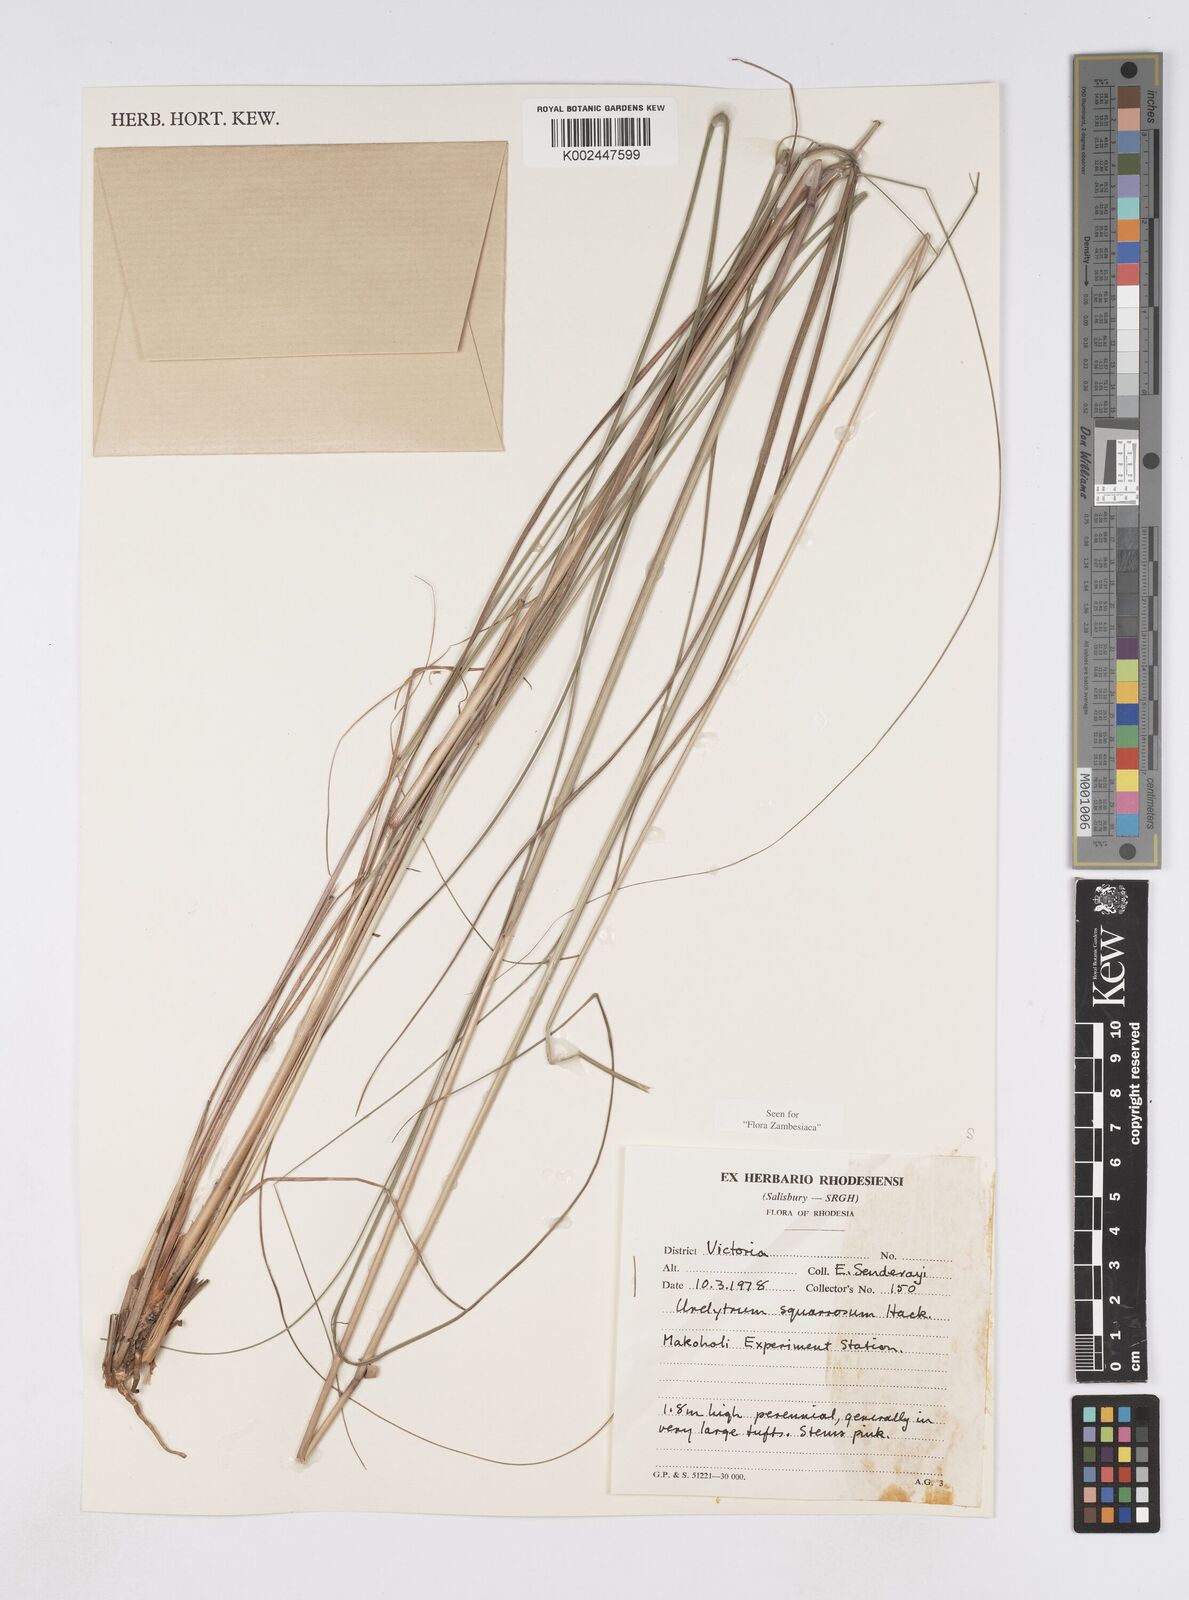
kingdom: Plantae
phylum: Tracheophyta
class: Liliopsida
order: Poales
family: Poaceae
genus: Urelytrum
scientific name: Urelytrum agropyroides
